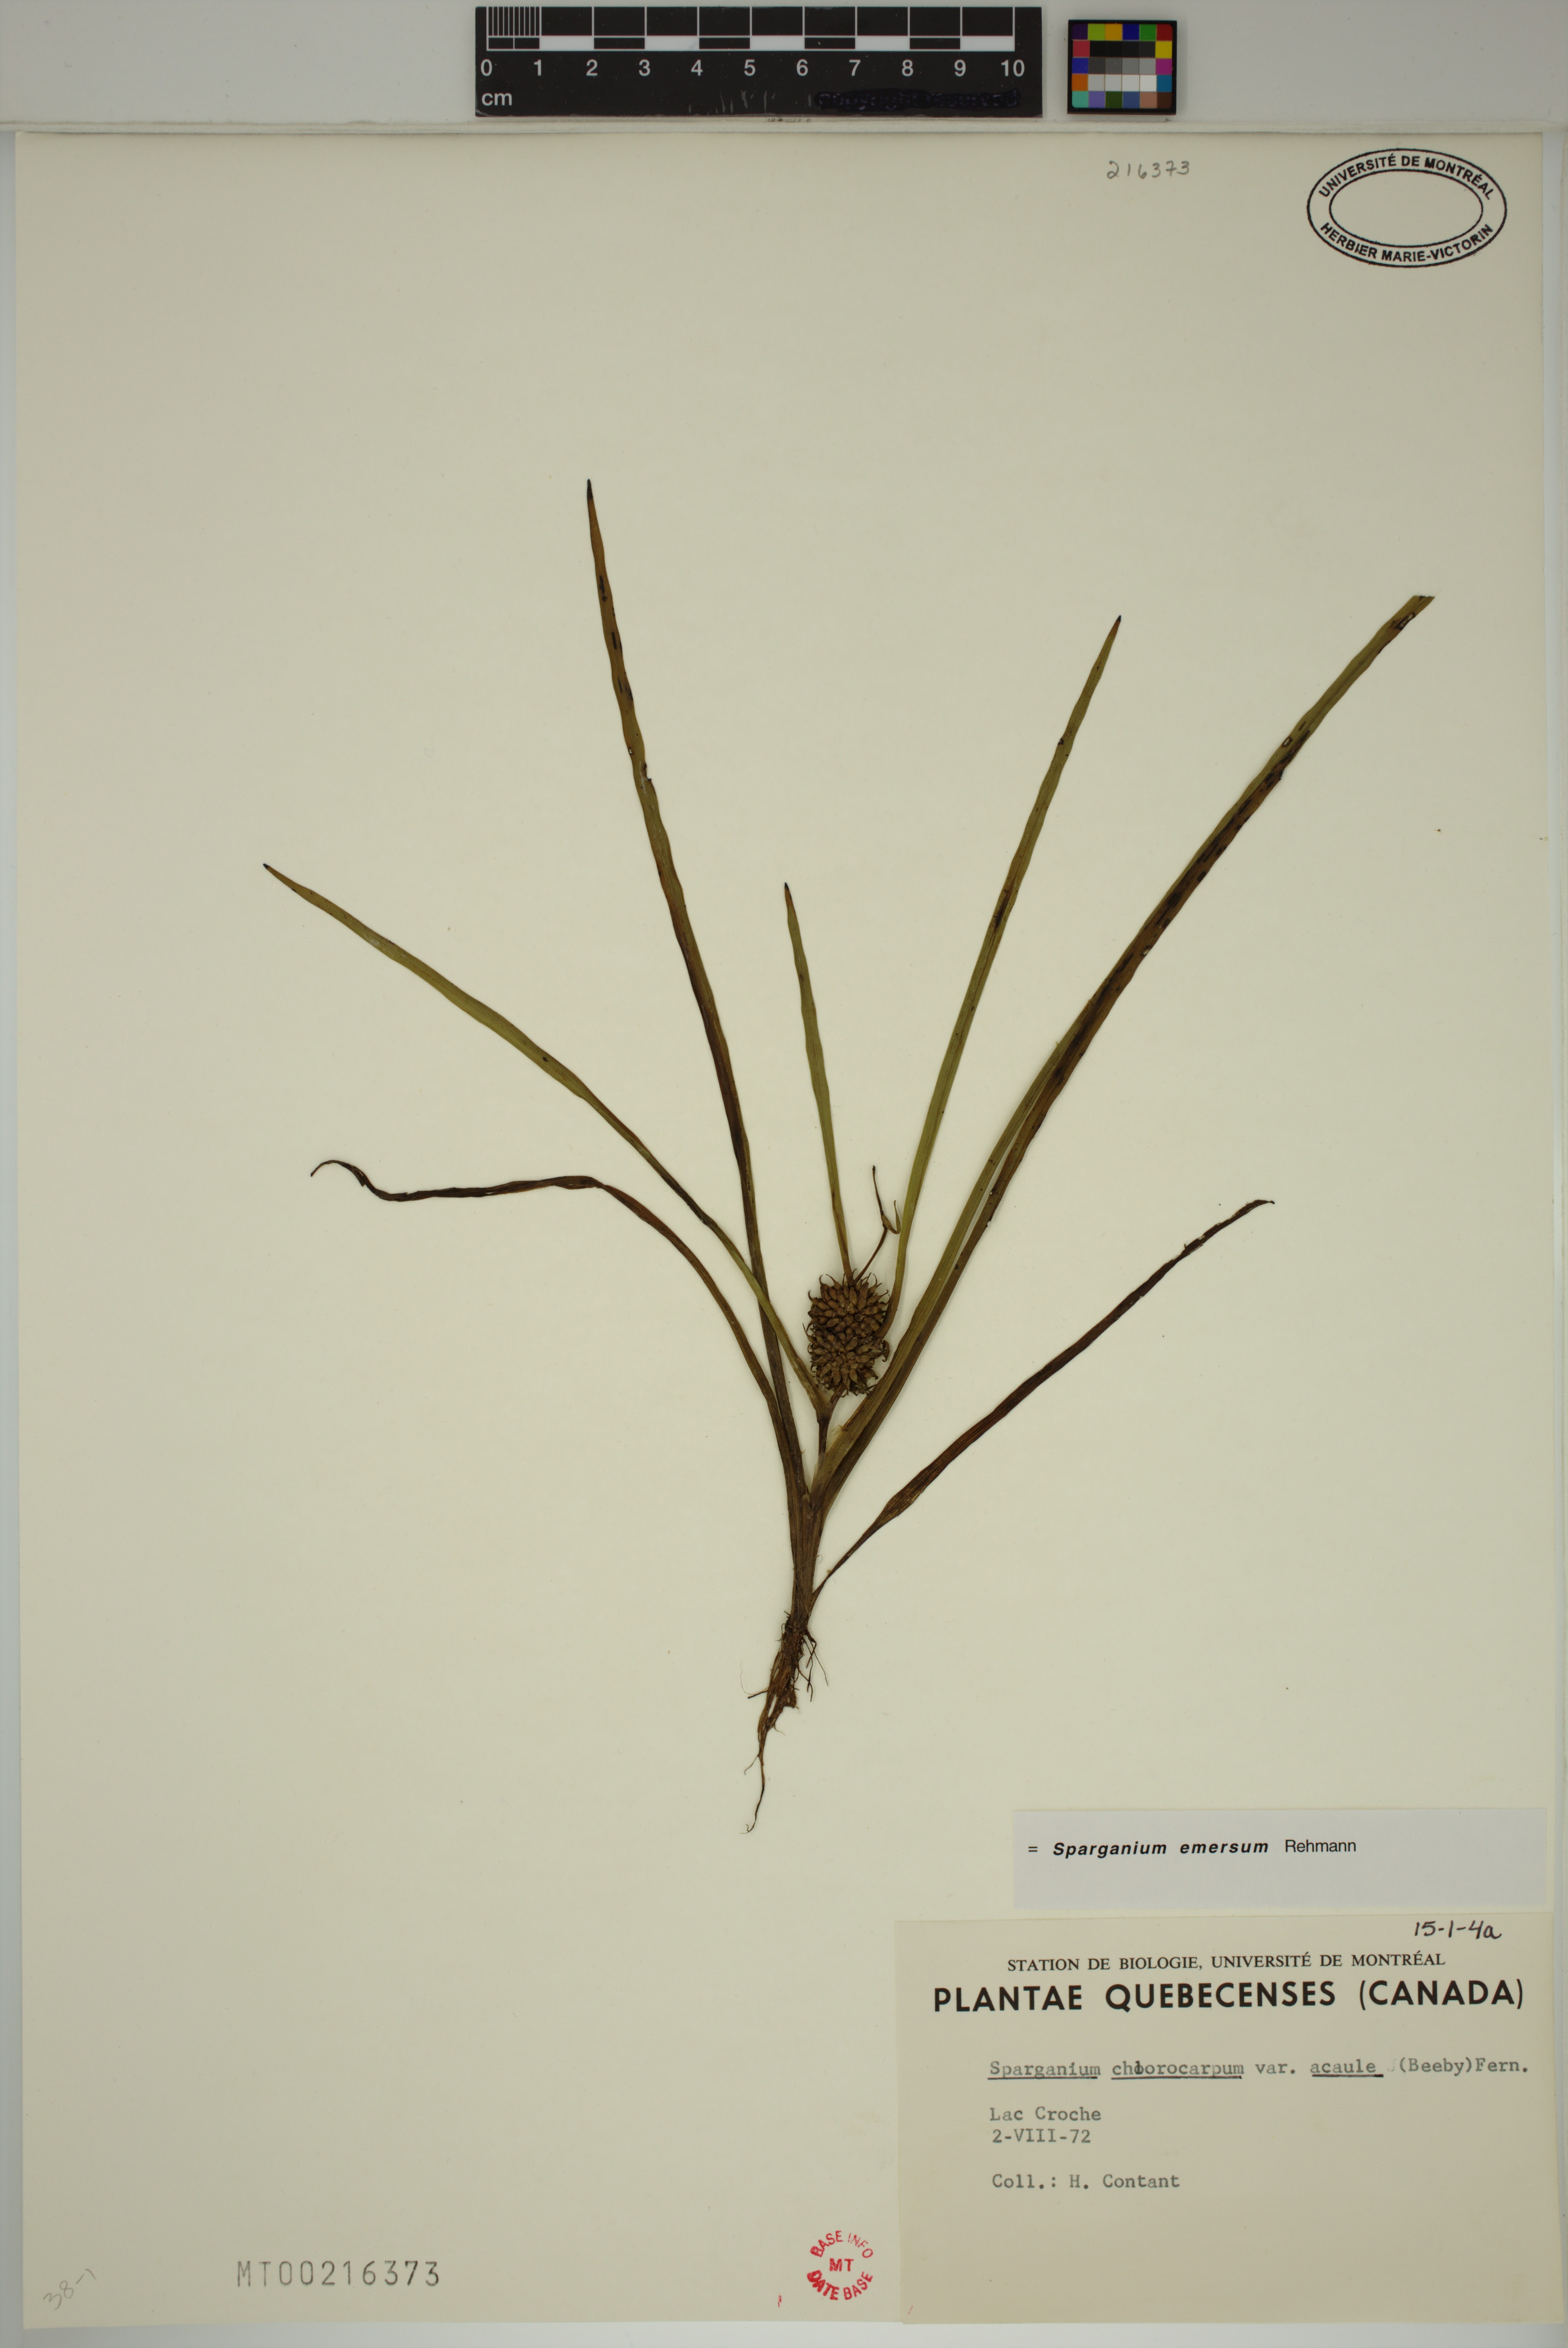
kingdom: Plantae
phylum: Tracheophyta
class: Liliopsida
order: Poales
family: Typhaceae
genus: Sparganium
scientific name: Sparganium emersum
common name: Unbranched bur-reed
